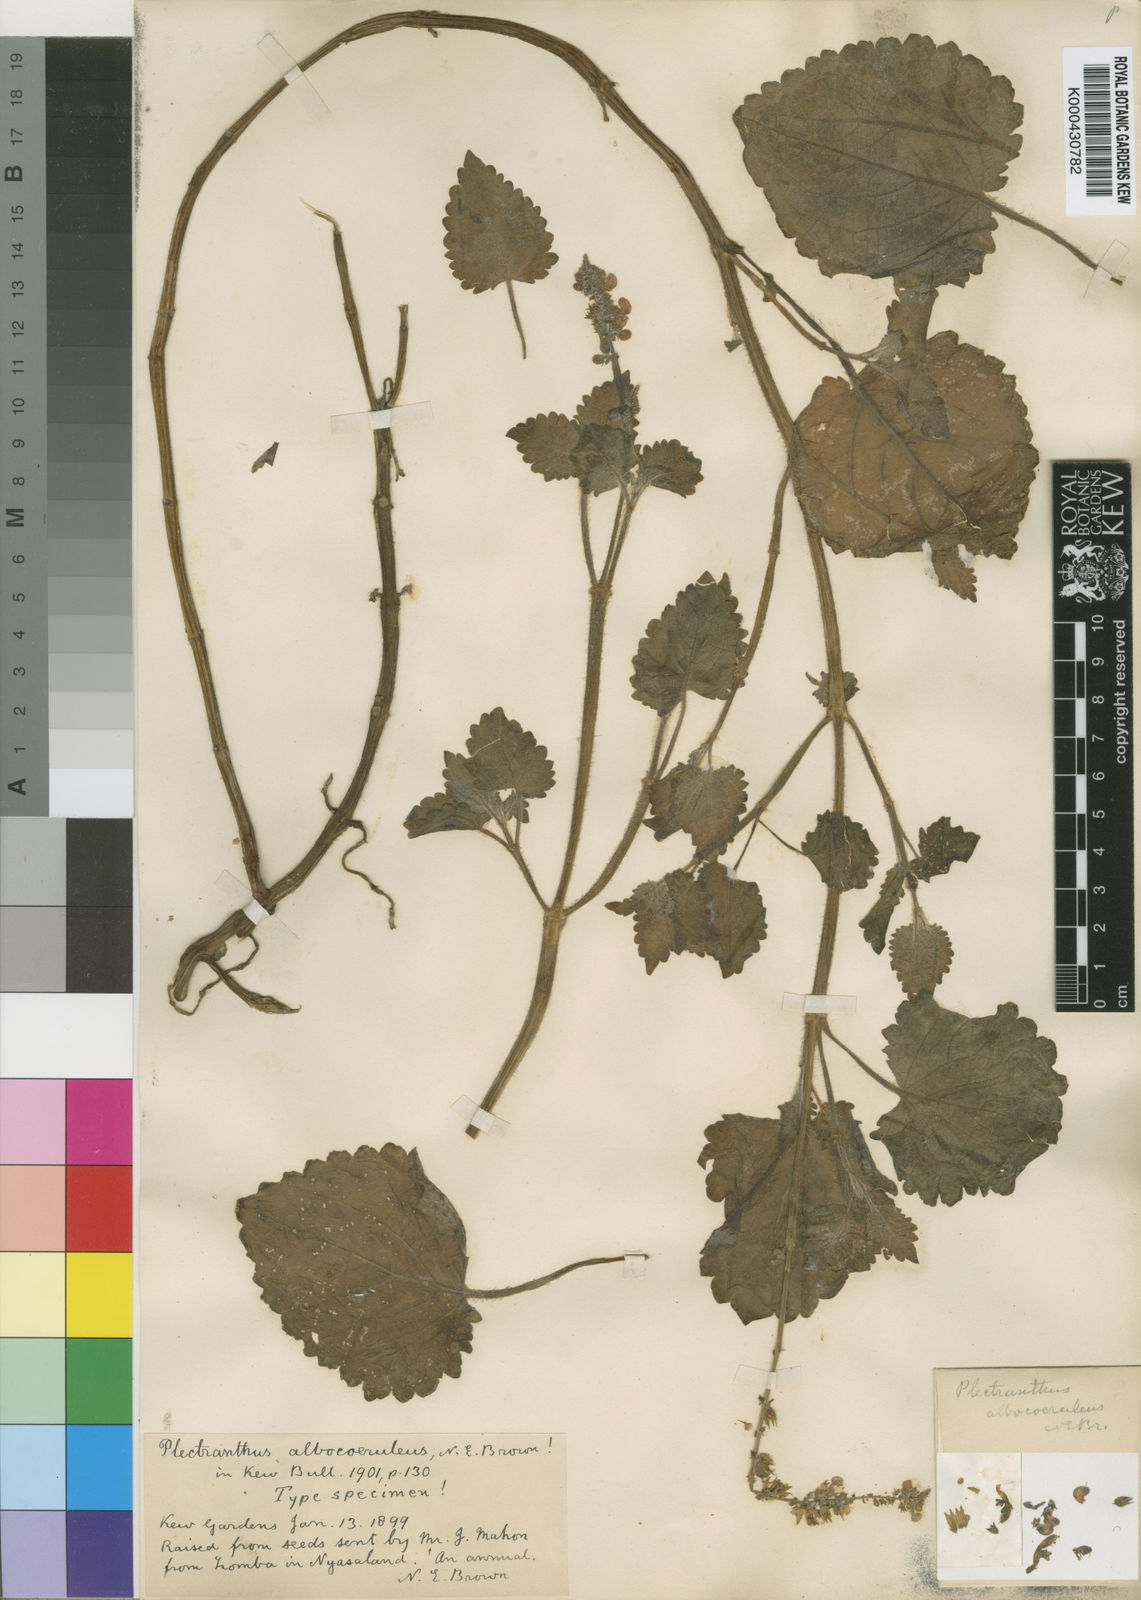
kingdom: Plantae
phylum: Tracheophyta
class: Magnoliopsida
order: Lamiales
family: Lamiaceae
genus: Equilabium
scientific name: Equilabium stenosiphon
